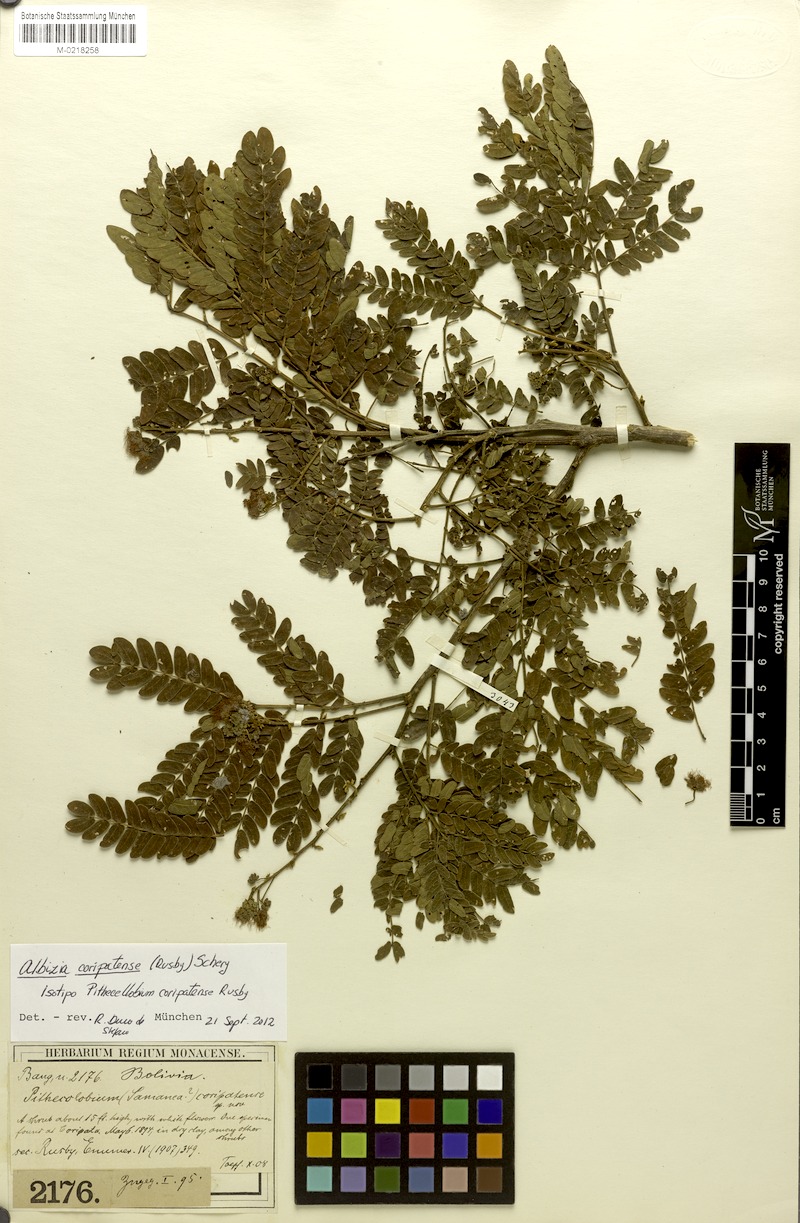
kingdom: Plantae
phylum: Tracheophyta
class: Magnoliopsida
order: Fabales
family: Fabaceae
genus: Albizia
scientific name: Albizia coripatensis
